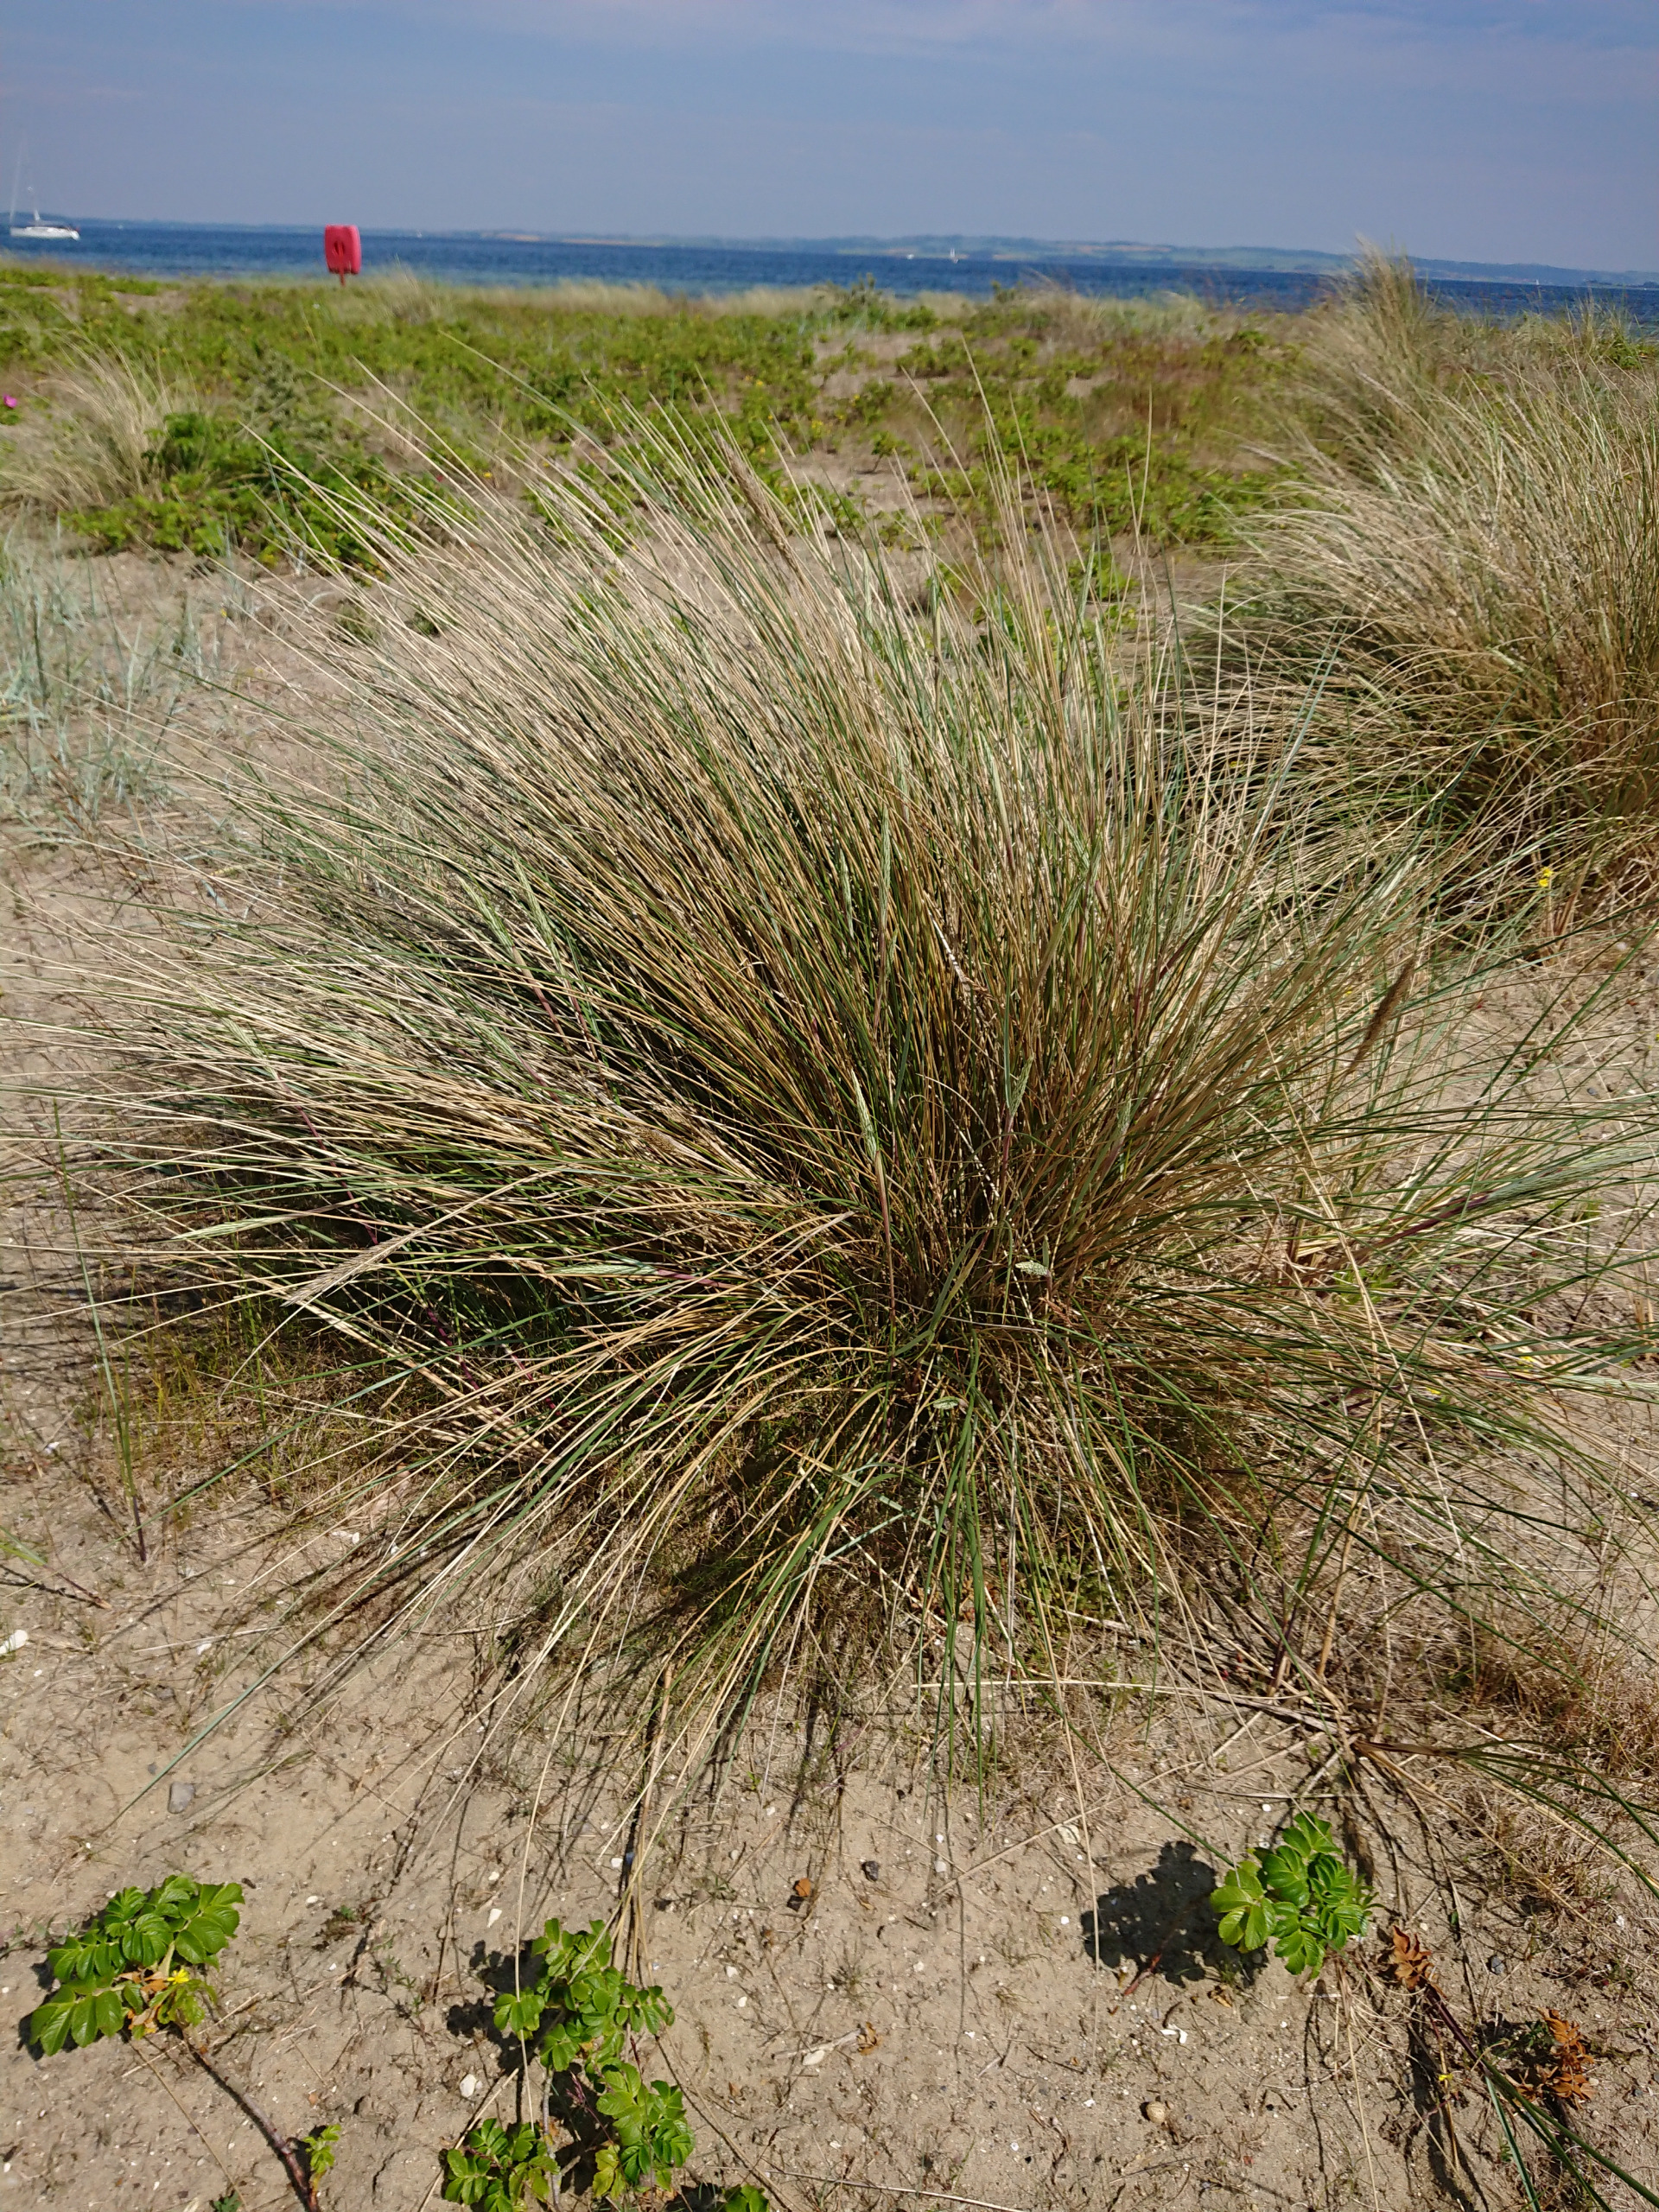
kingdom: Plantae
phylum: Tracheophyta
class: Liliopsida
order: Poales
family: Poaceae
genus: Calamagrostis
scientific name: Calamagrostis arenaria
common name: Sand-hjælme
